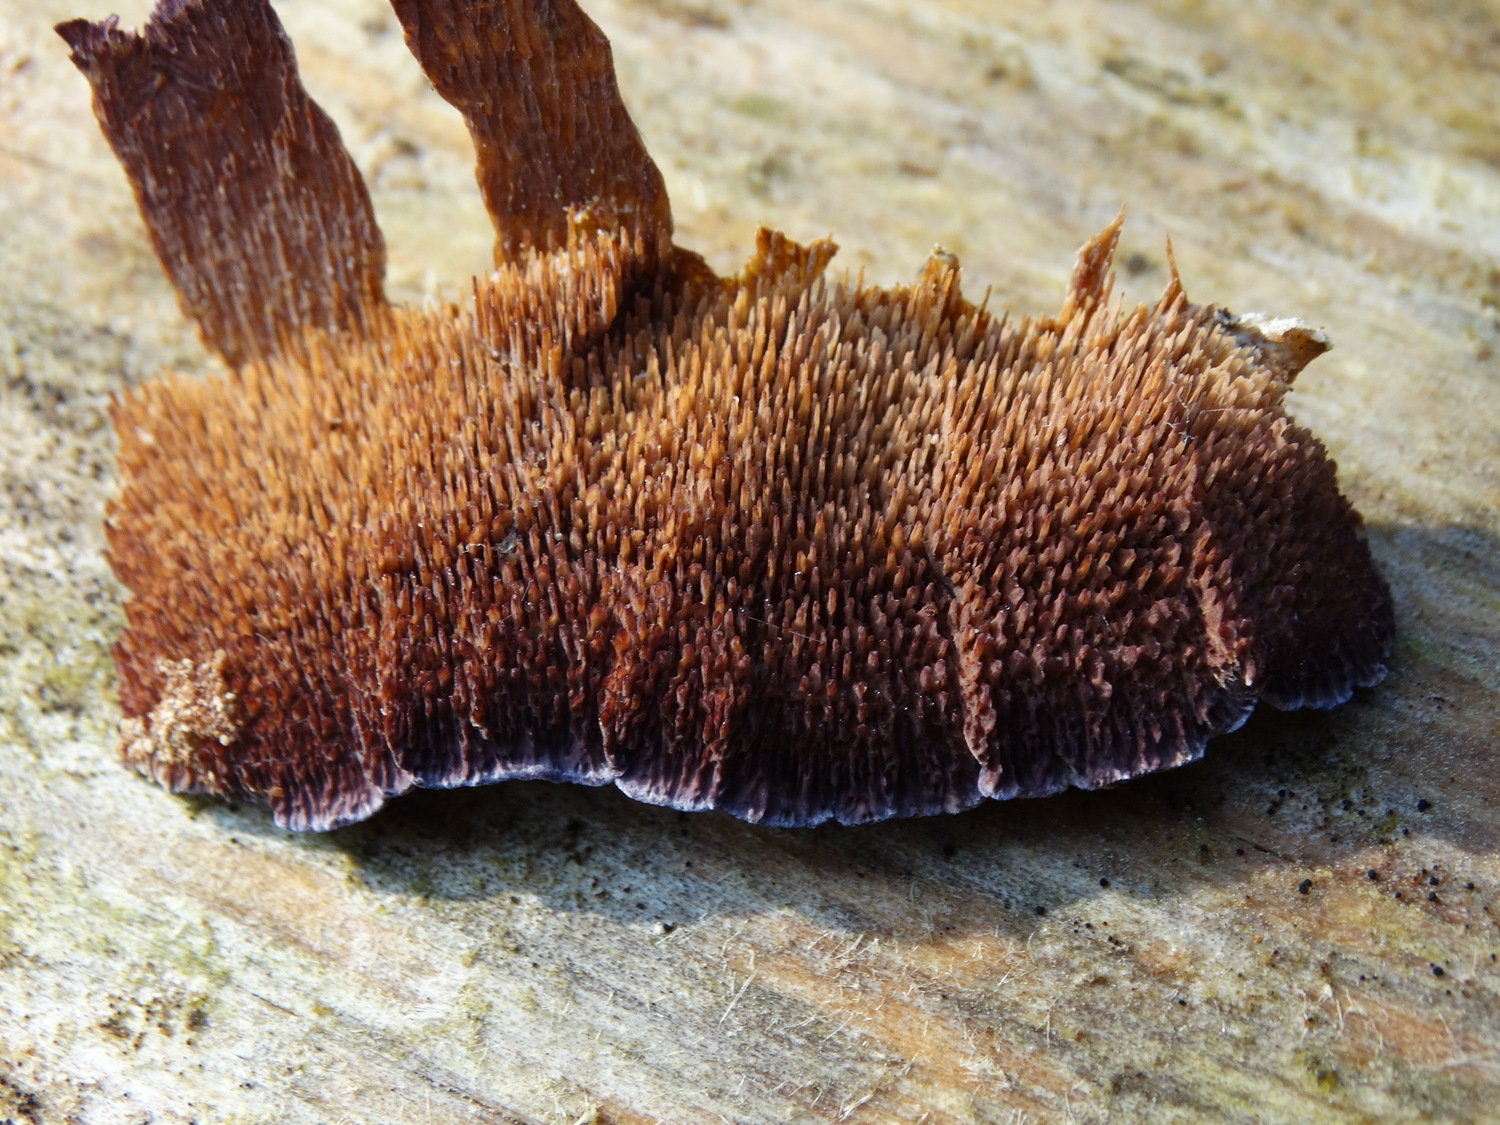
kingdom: Fungi
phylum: Basidiomycota
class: Agaricomycetes
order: Hymenochaetales
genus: Trichaptum
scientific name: Trichaptum fuscoviolaceum
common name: tandet violporesvamp
